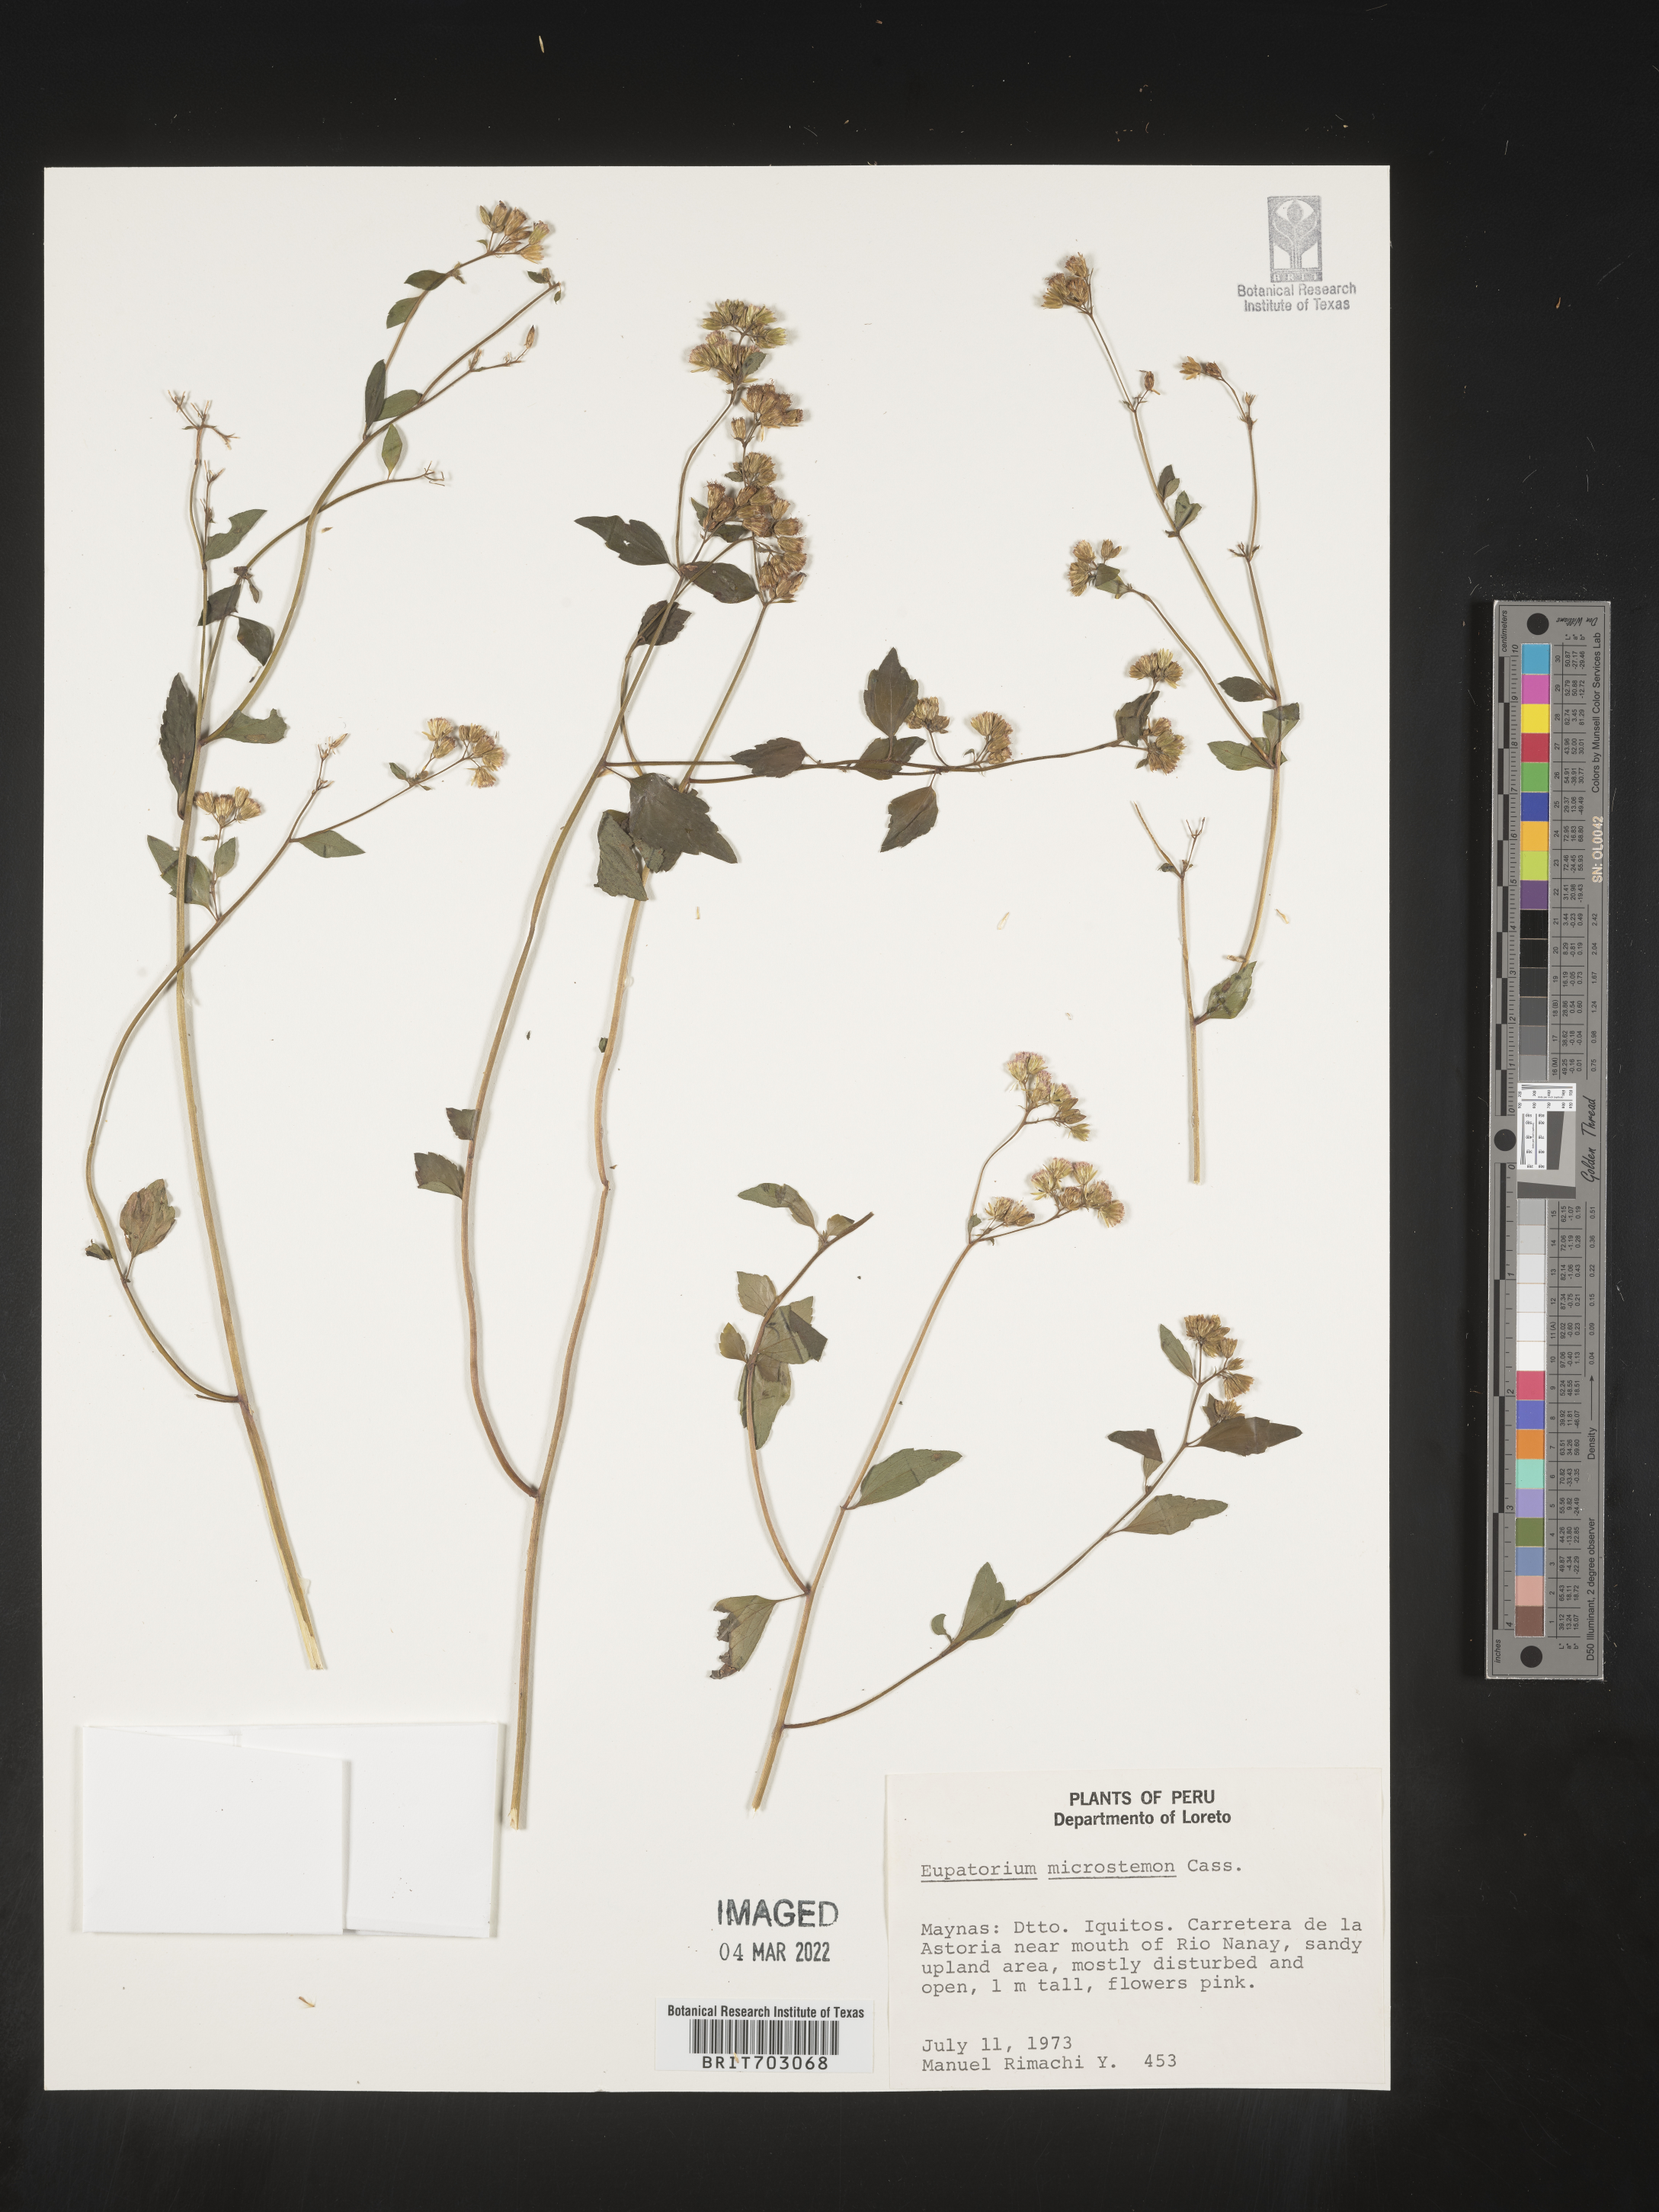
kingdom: Plantae
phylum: Tracheophyta
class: Magnoliopsida
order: Asterales
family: Asteraceae
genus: Eupatorium
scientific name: Eupatorium
